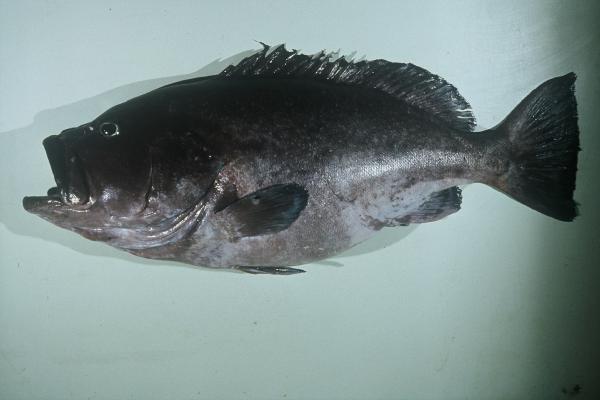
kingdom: Animalia
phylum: Chordata
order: Perciformes
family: Serranidae
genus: Epinephelus
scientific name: Epinephelus flavocaeruleus
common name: Blue and yellow grouper
